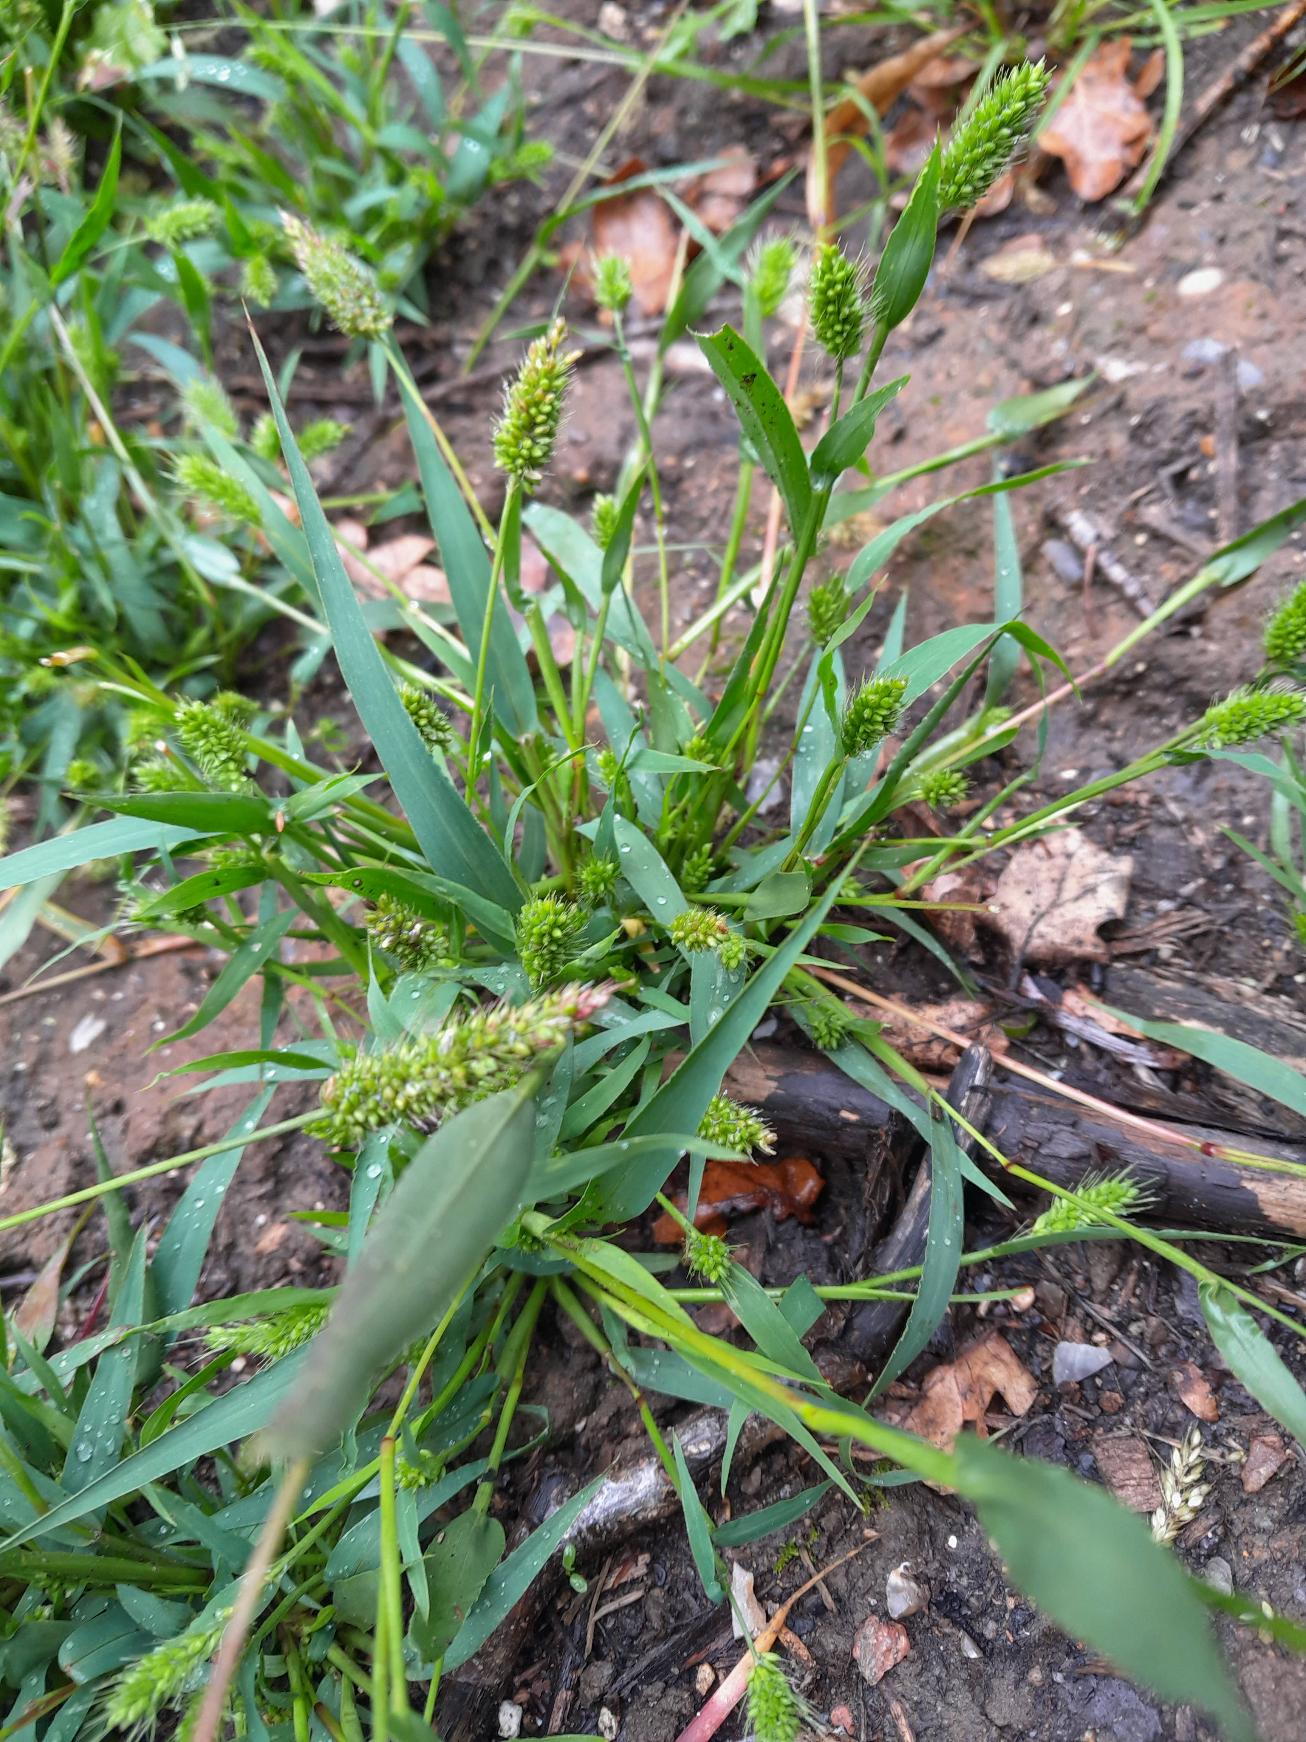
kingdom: Plantae
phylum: Tracheophyta
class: Liliopsida
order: Poales
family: Poaceae
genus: Setaria
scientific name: Setaria viridis
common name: Grøn skærmaks
